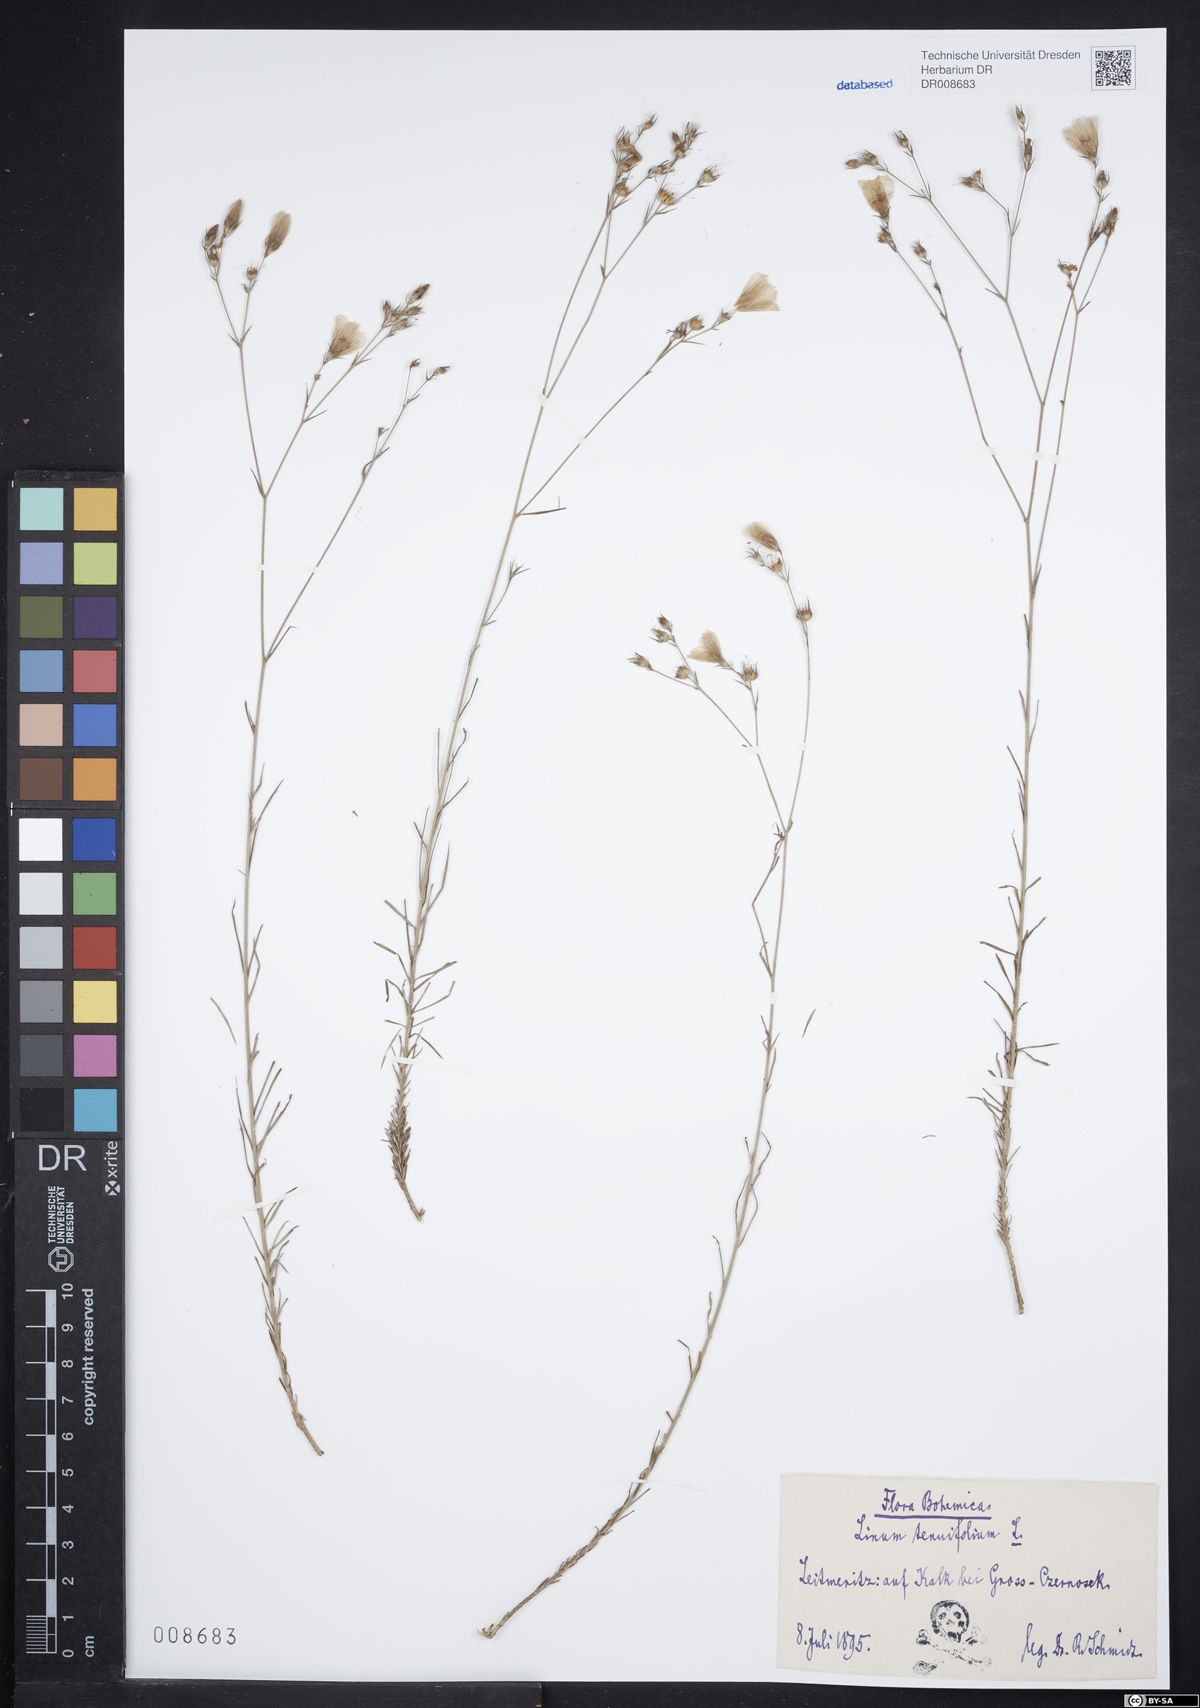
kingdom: Plantae
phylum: Tracheophyta
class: Magnoliopsida
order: Malpighiales
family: Linaceae
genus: Linum
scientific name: Linum tenuifolium
